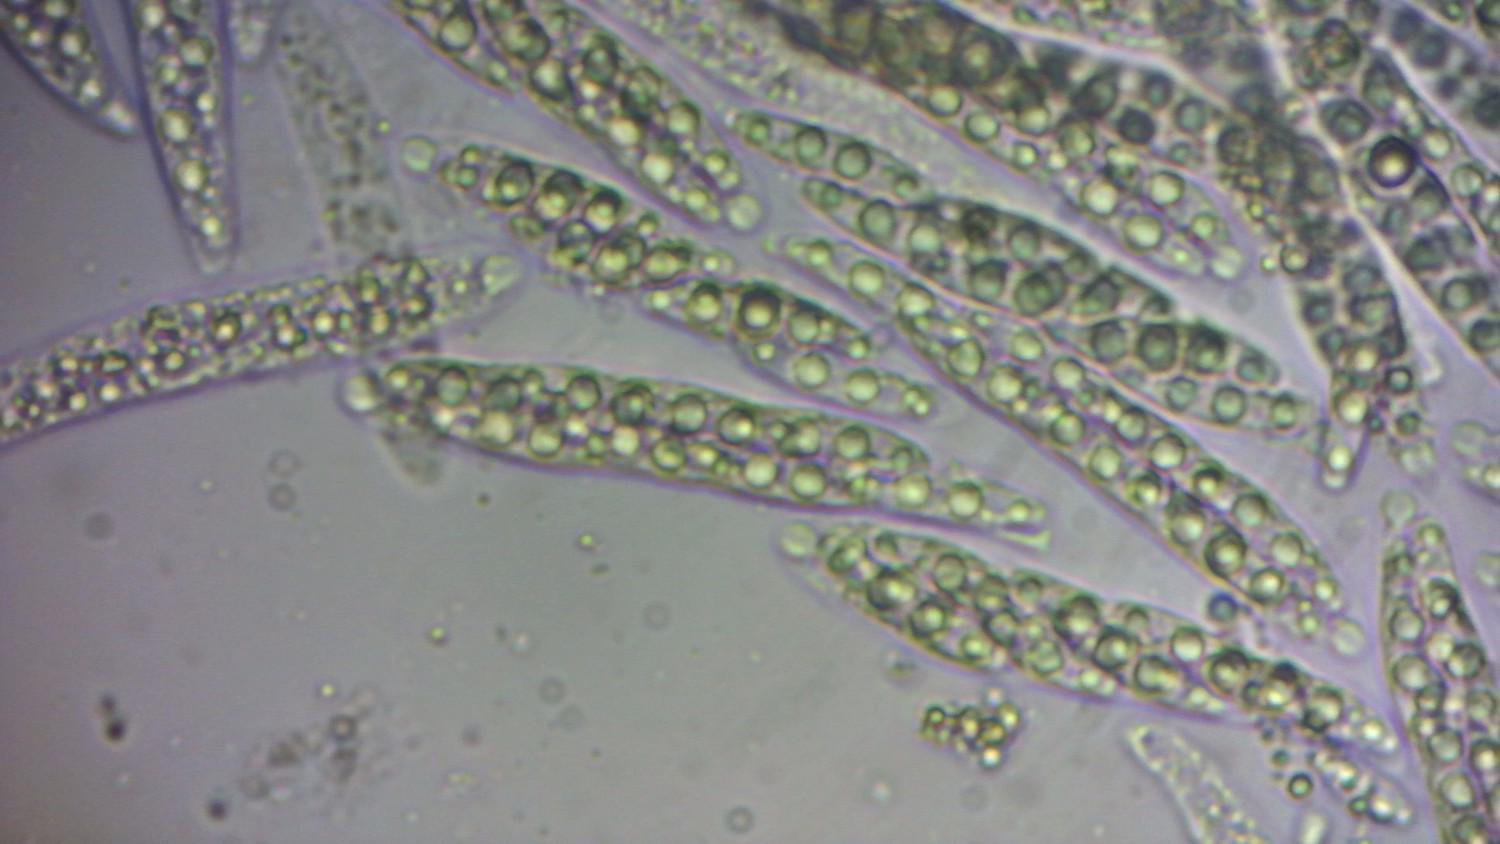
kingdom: Fungi
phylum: Ascomycota
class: Sordariomycetes
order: Diaporthales
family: Valsaceae
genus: Hypospilina
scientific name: Hypospilina pustula
